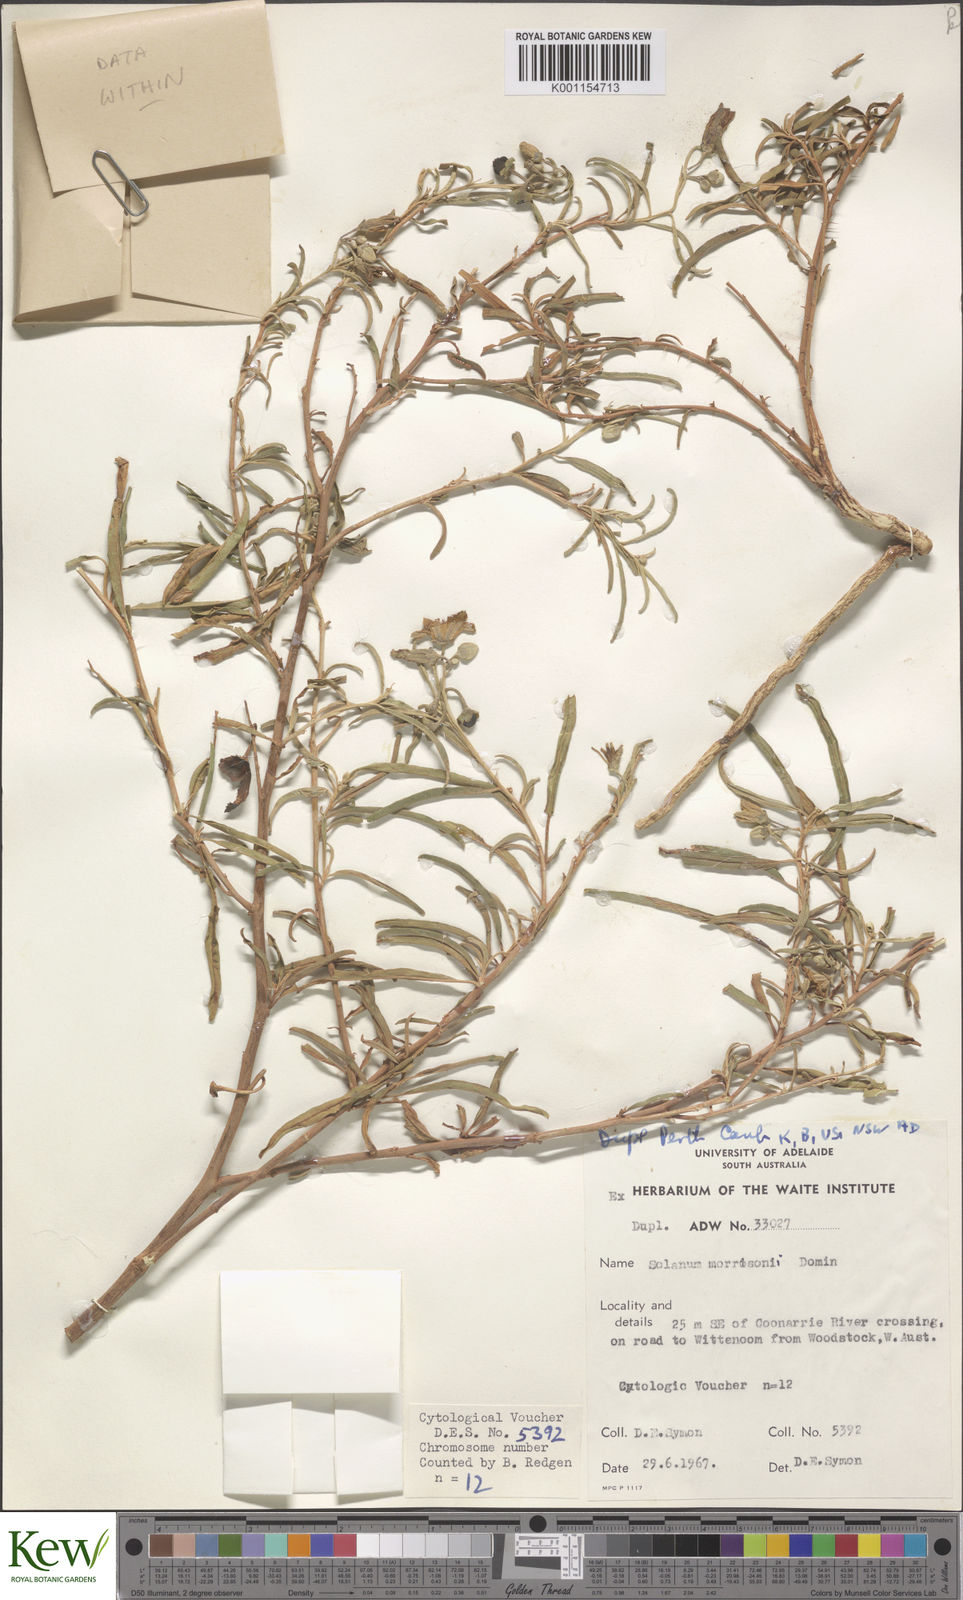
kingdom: Plantae
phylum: Tracheophyta
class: Magnoliopsida
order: Solanales
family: Solanaceae
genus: Solanum
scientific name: Solanum sturtianum
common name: Thargomindah nightshade
